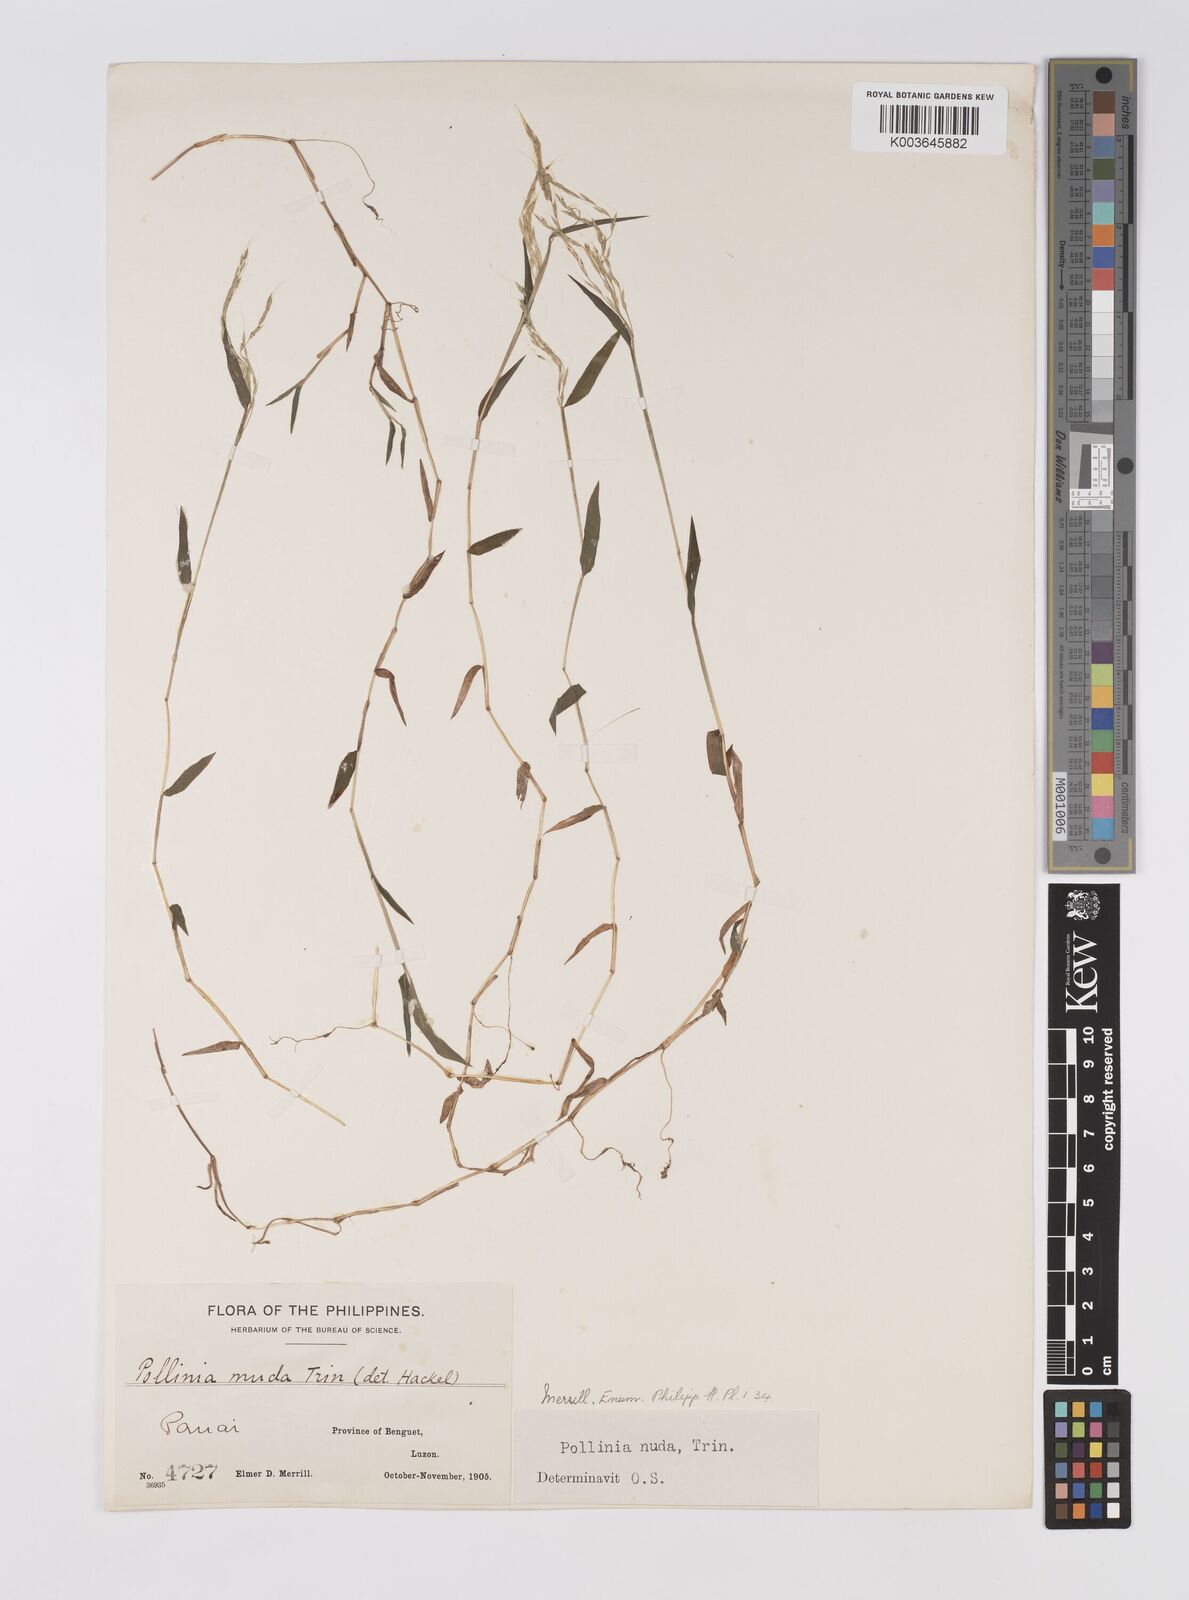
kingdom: Plantae
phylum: Tracheophyta
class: Liliopsida
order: Poales
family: Poaceae
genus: Microstegium
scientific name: Microstegium nudum
